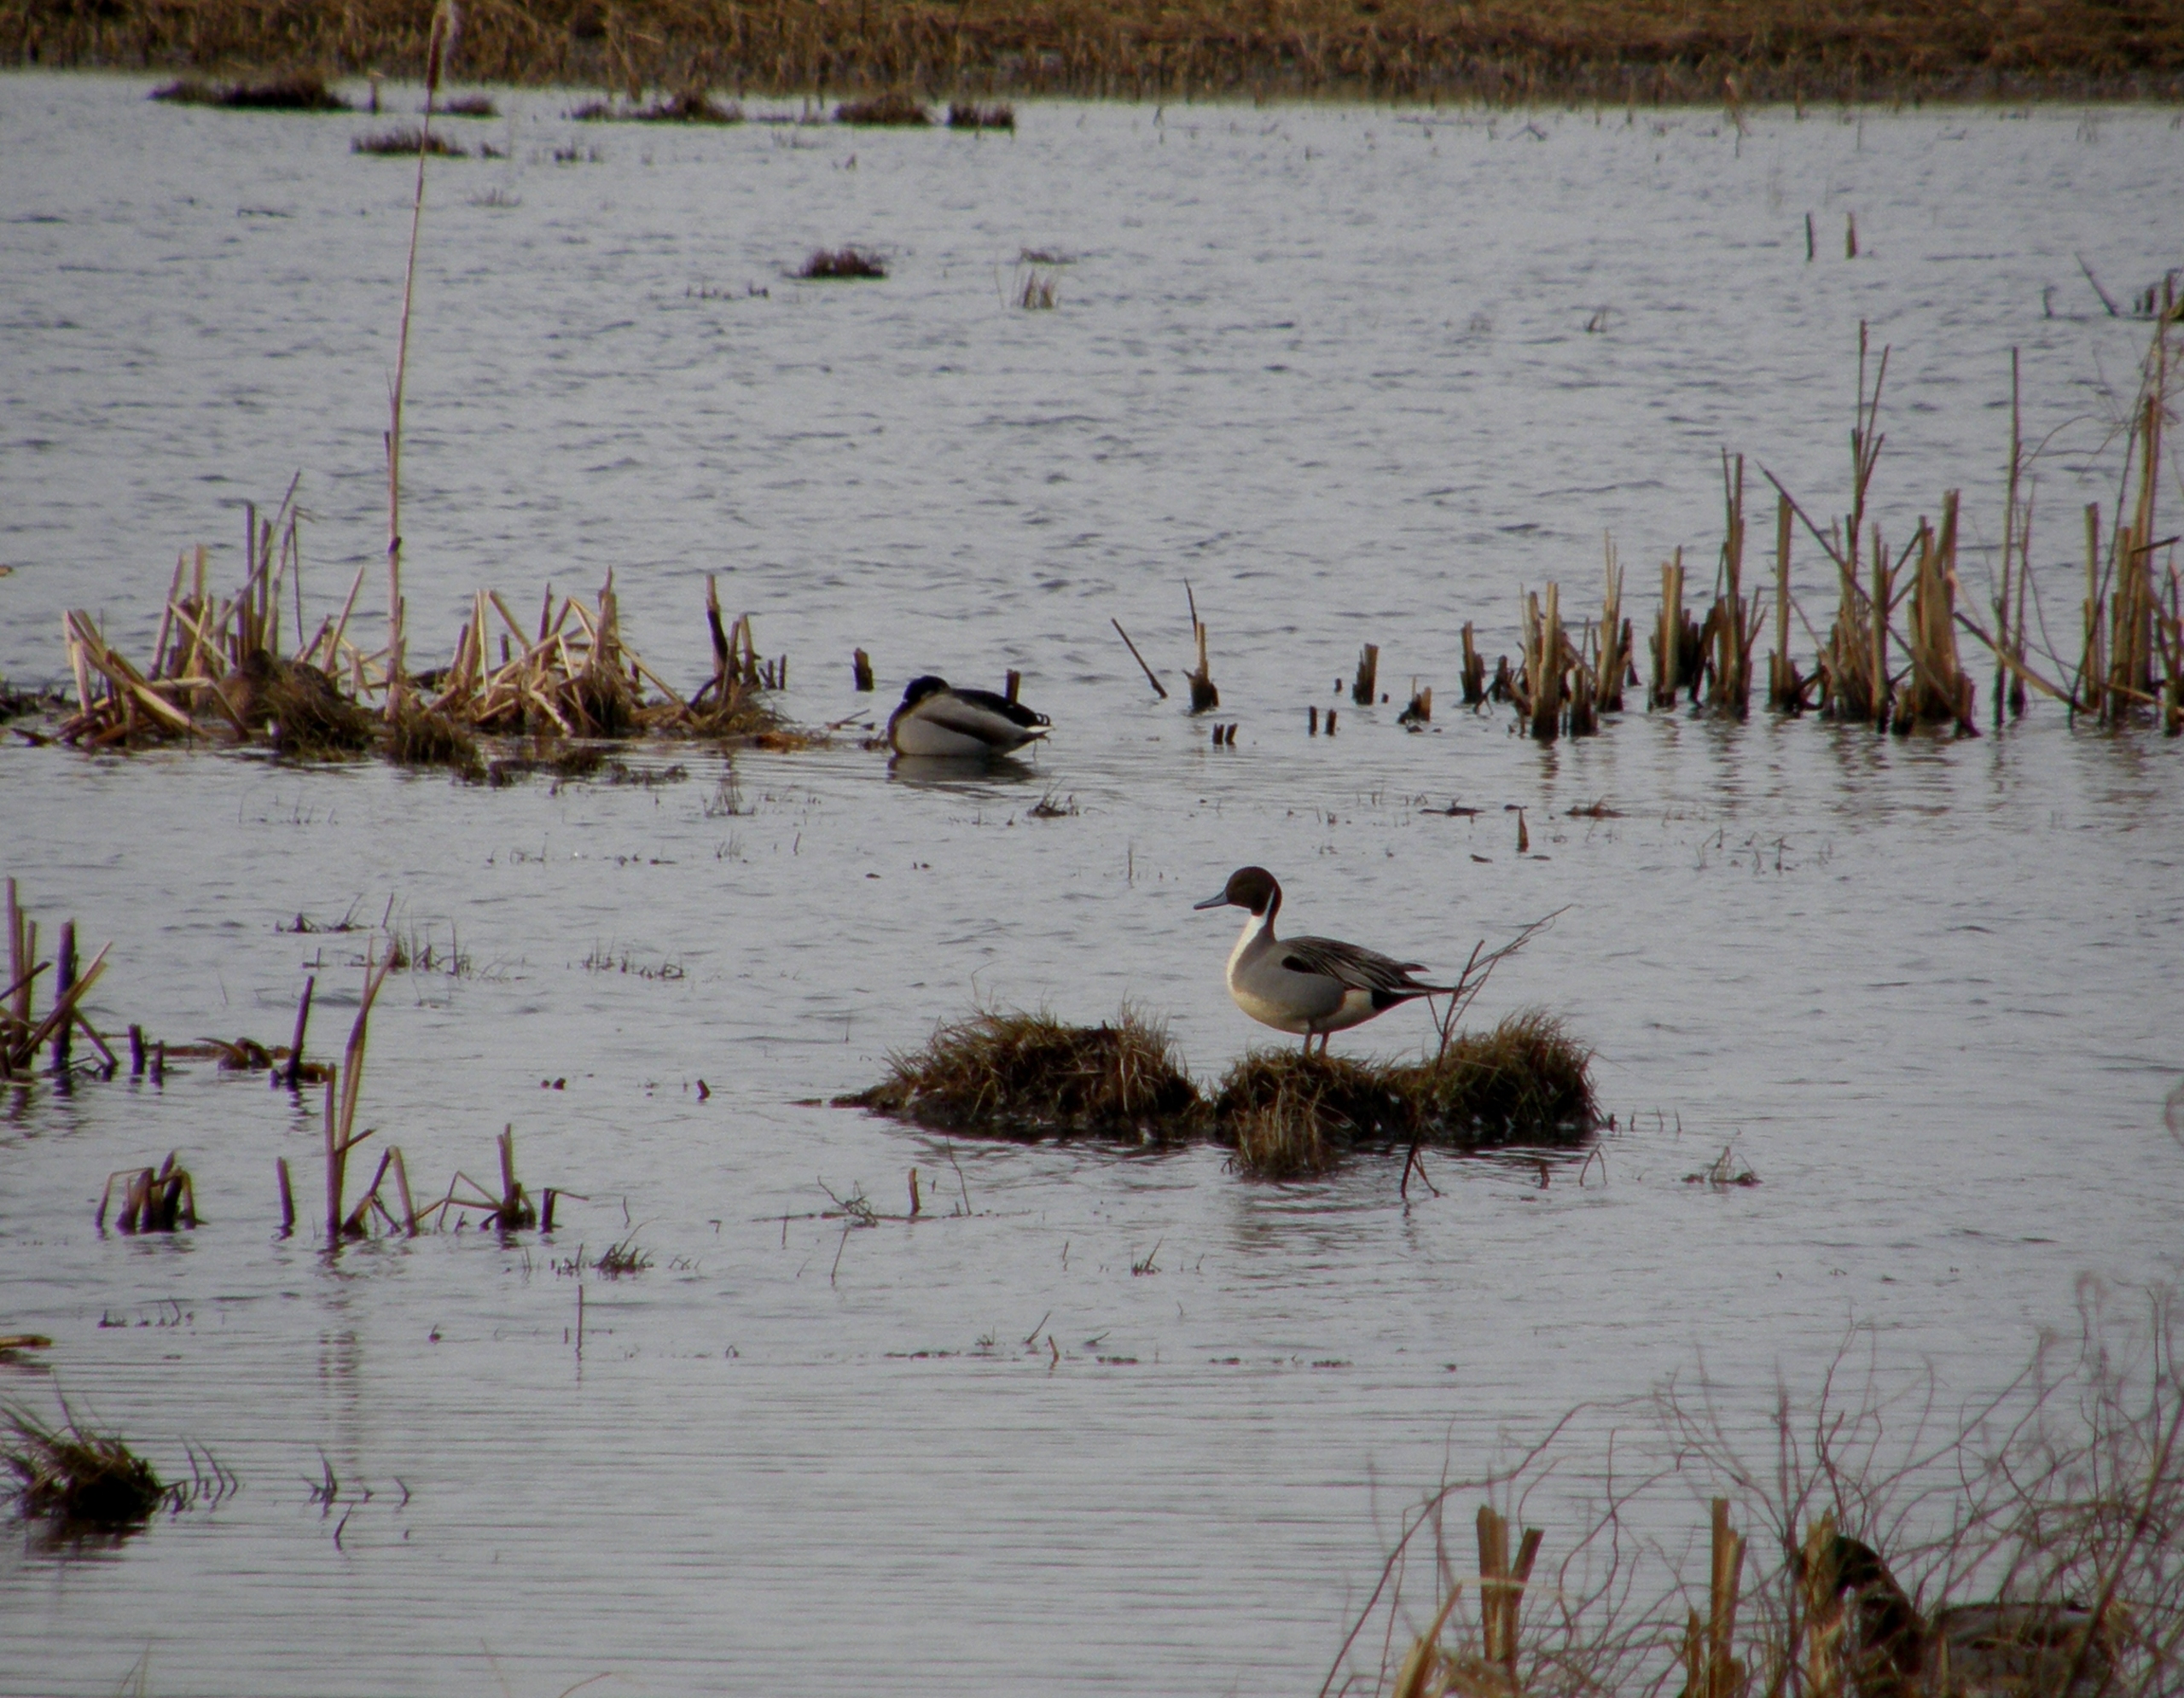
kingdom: Animalia
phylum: Chordata
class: Aves
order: Anseriformes
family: Anatidae
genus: Anas
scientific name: Anas acuta
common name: Spidsand
